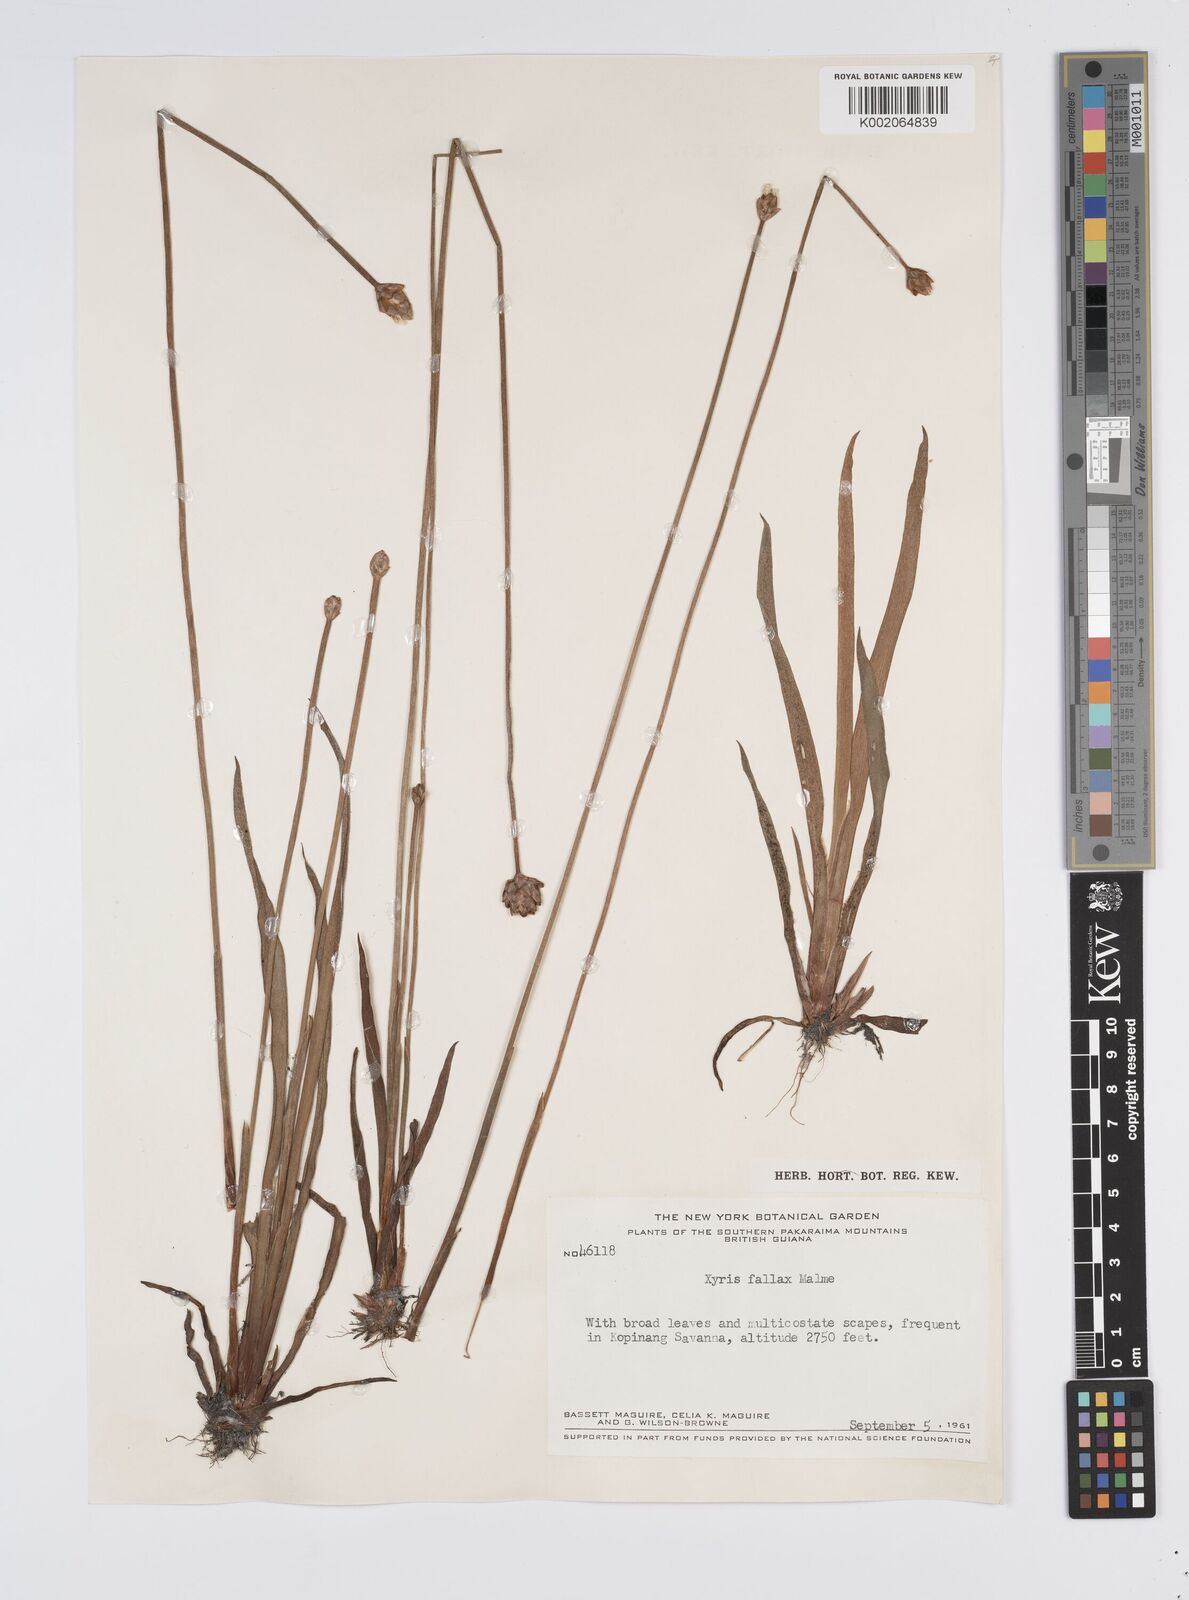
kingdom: Plantae
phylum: Tracheophyta
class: Liliopsida
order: Poales
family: Xyridaceae
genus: Xyris
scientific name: Xyris fallax
